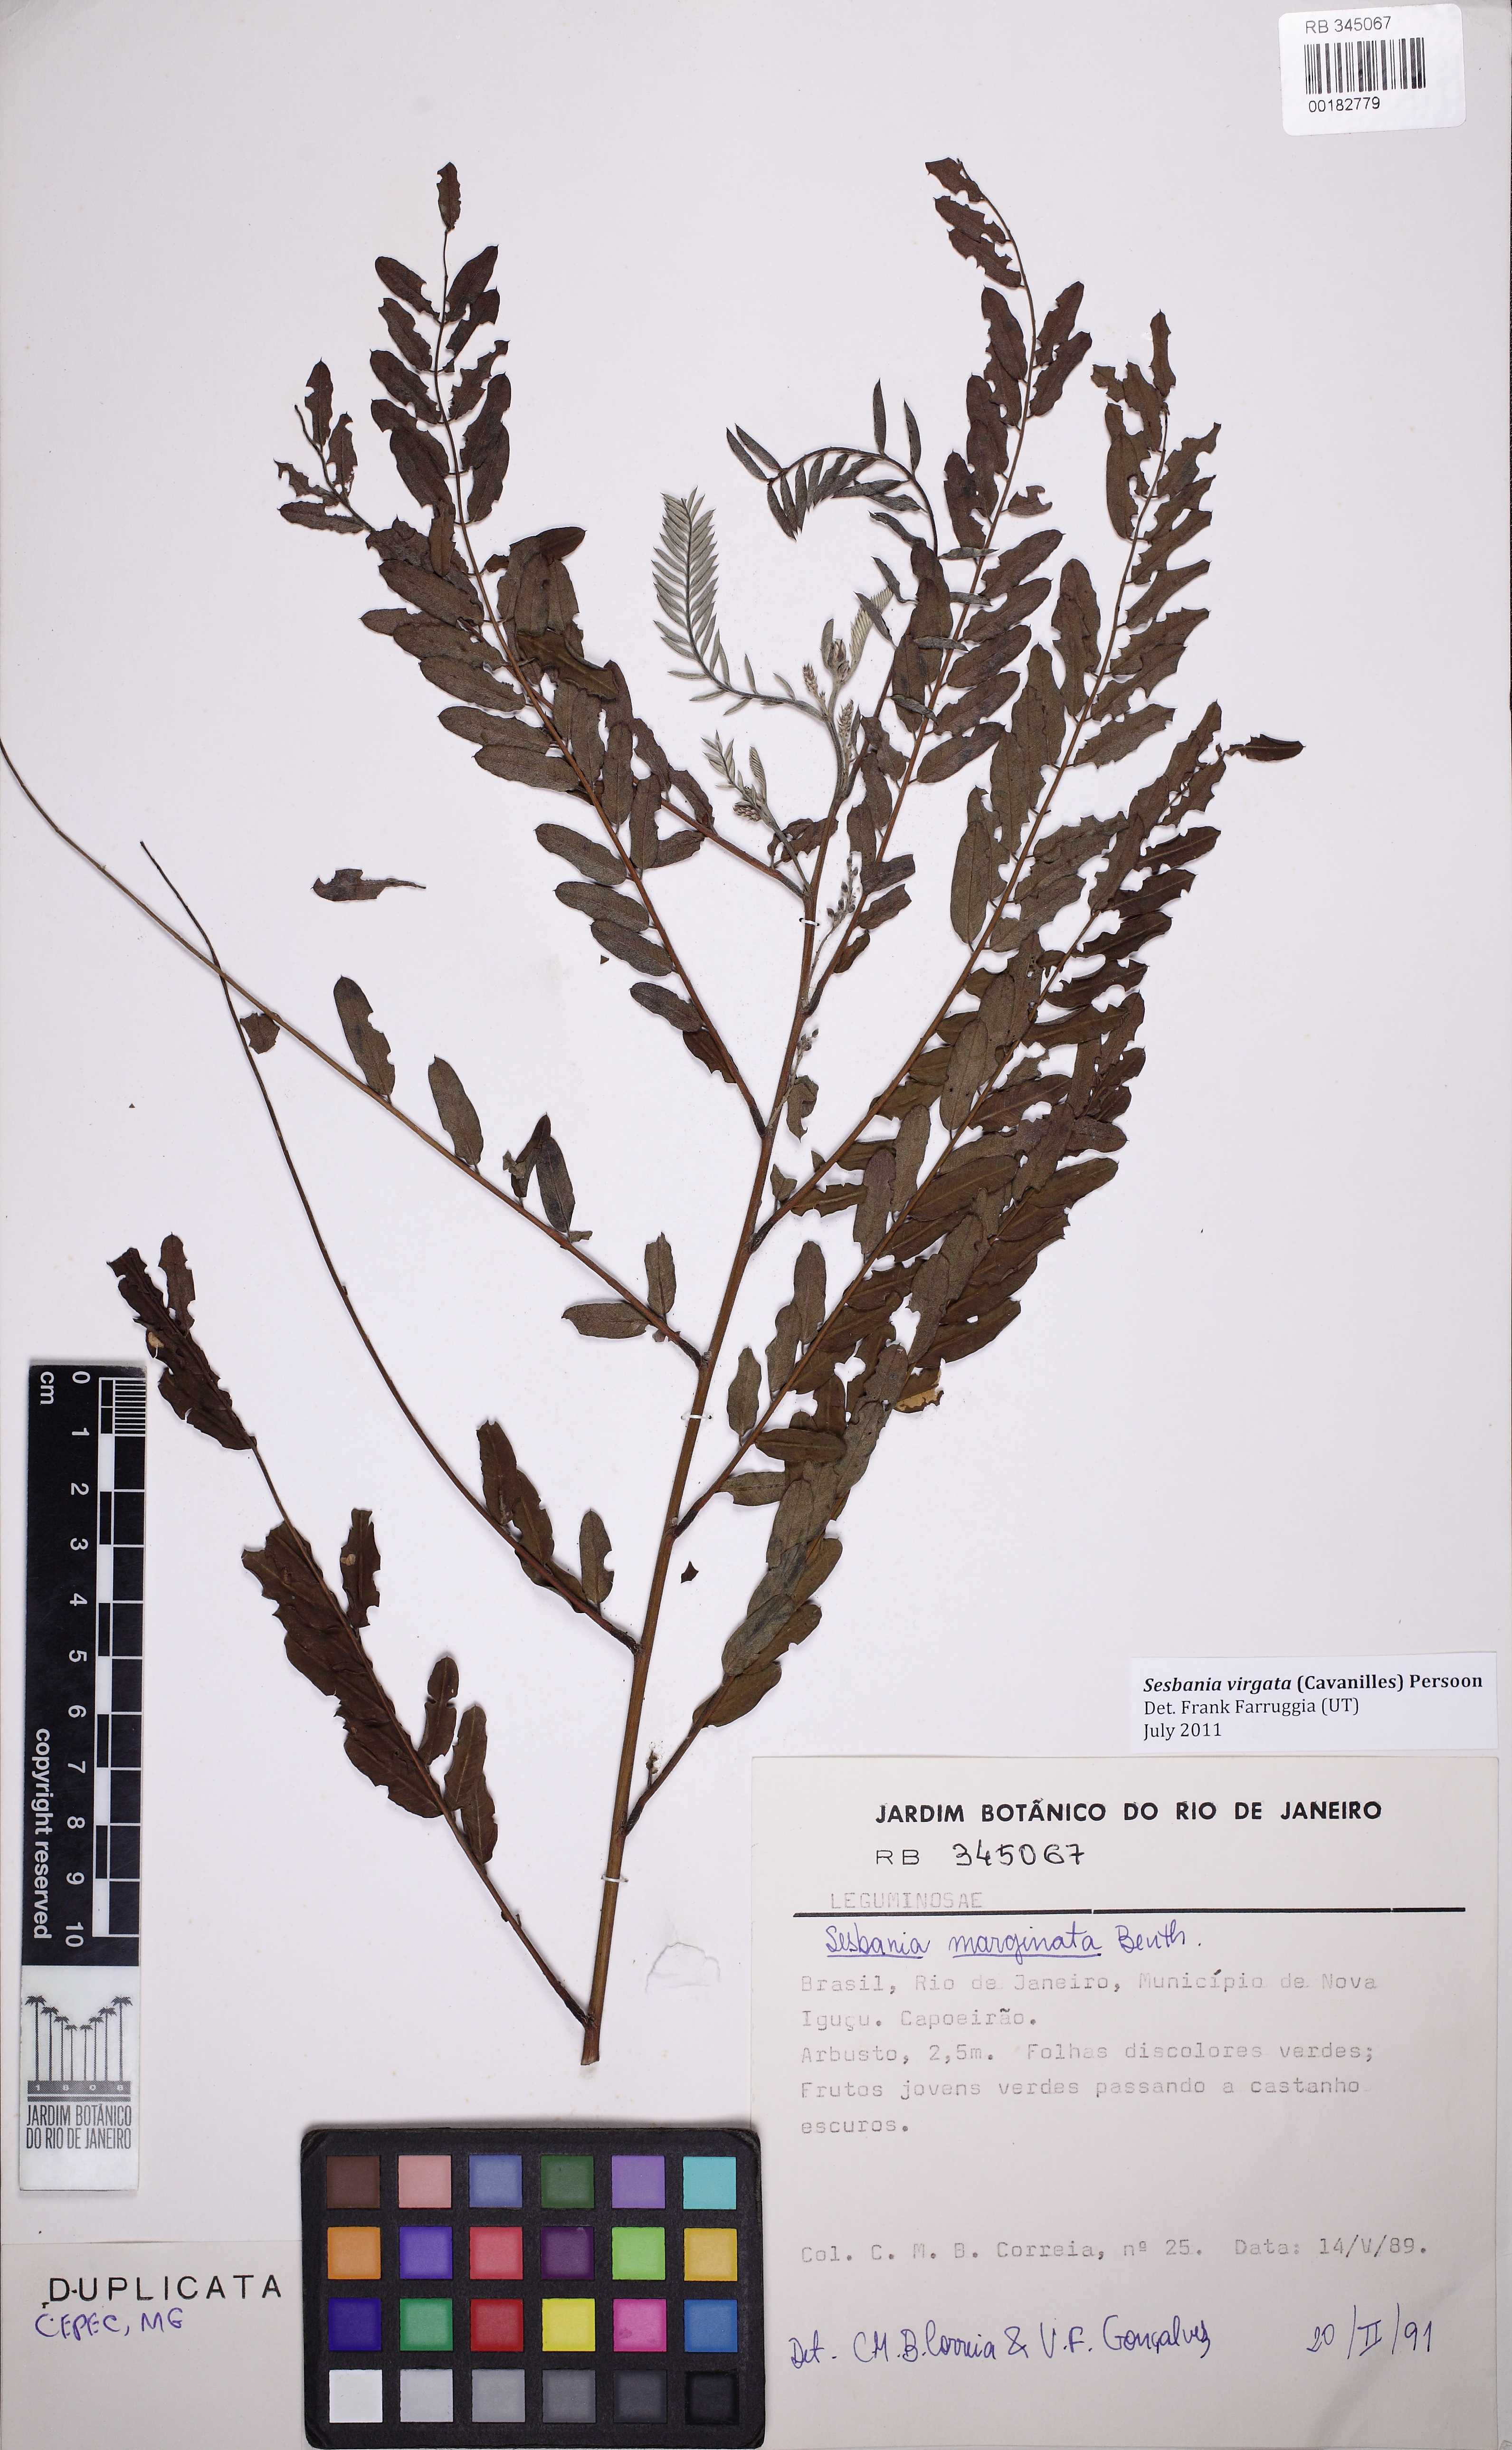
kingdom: Plantae
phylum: Tracheophyta
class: Magnoliopsida
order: Fabales
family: Fabaceae
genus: Sesbania
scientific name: Sesbania virgata
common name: Wand riverhemp
